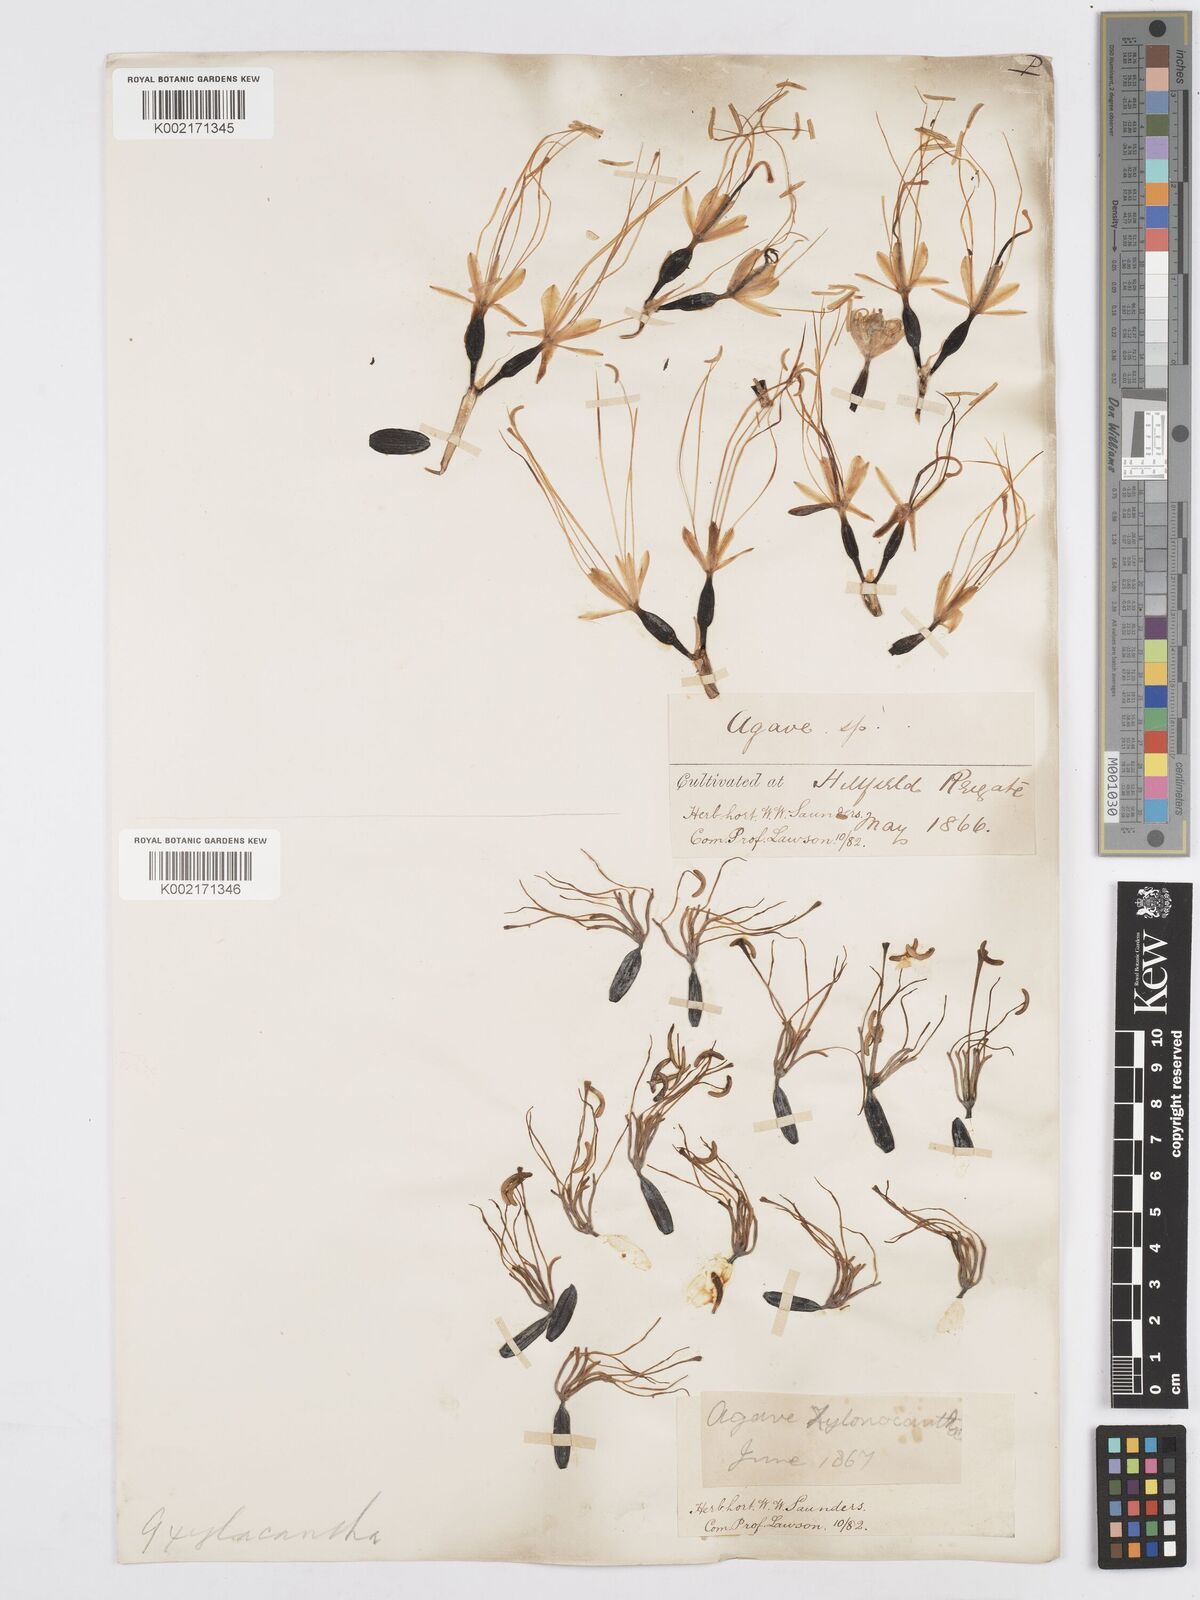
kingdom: Plantae
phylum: Tracheophyta
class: Liliopsida
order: Asparagales
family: Asparagaceae
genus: Agave
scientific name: Agave xylonacantha
